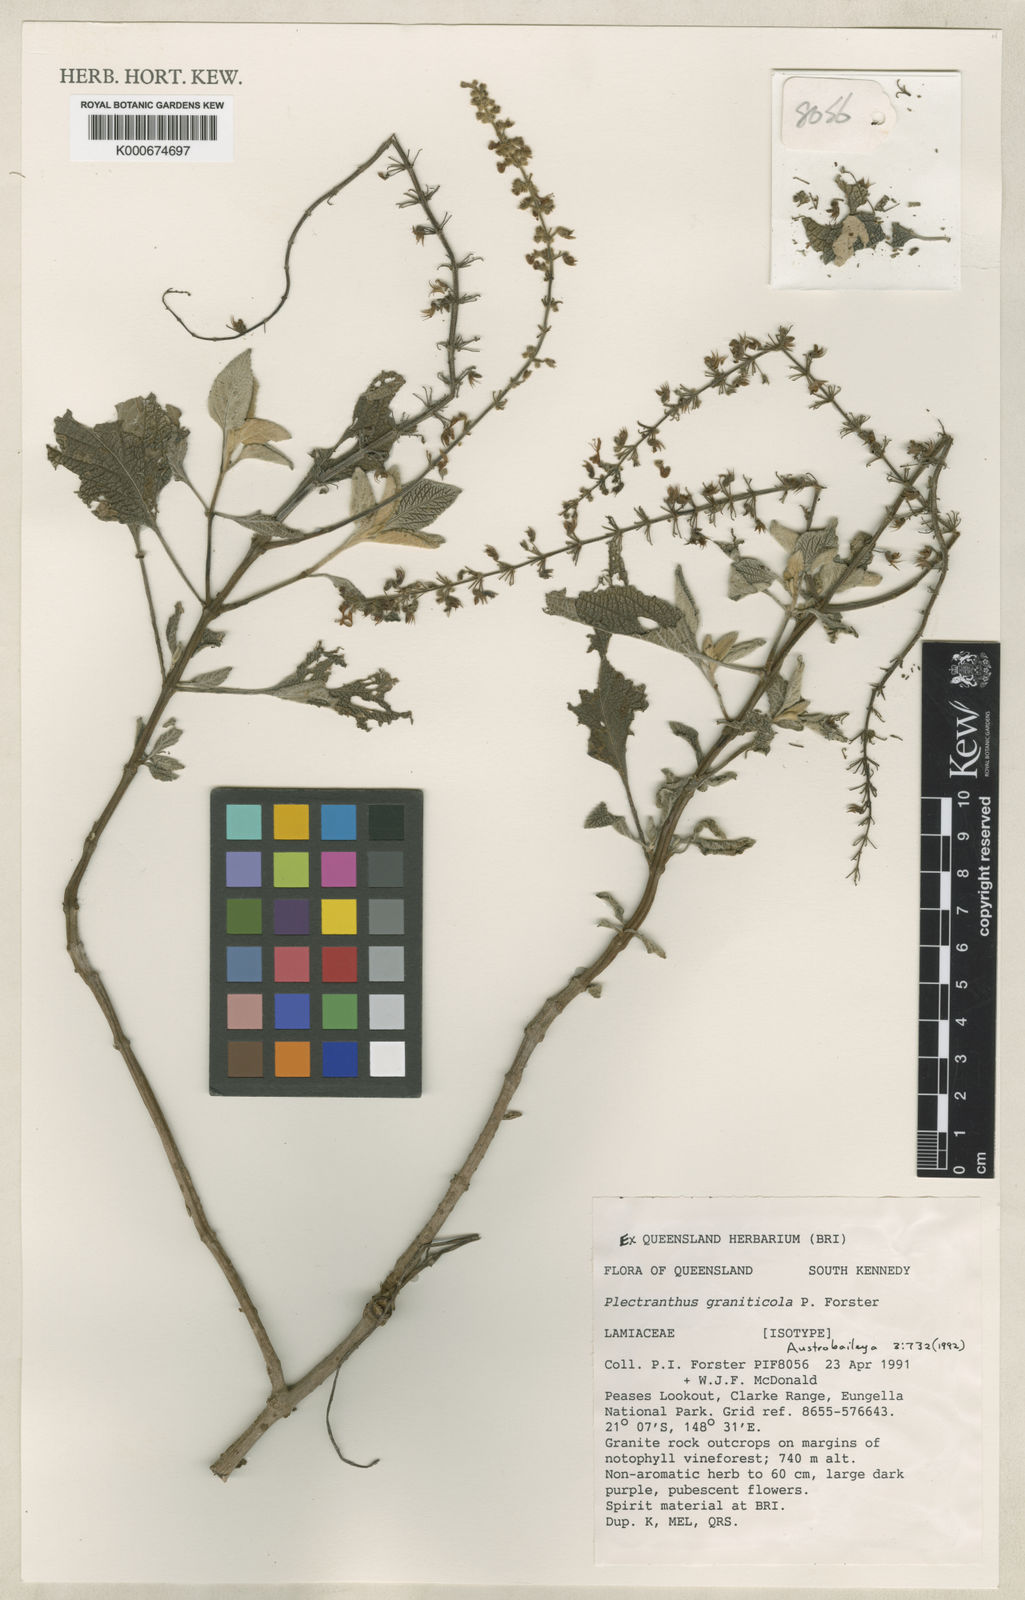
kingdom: Plantae
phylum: Tracheophyta
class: Magnoliopsida
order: Lamiales
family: Lamiaceae
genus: Coleus
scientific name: Coleus eungellaensis
